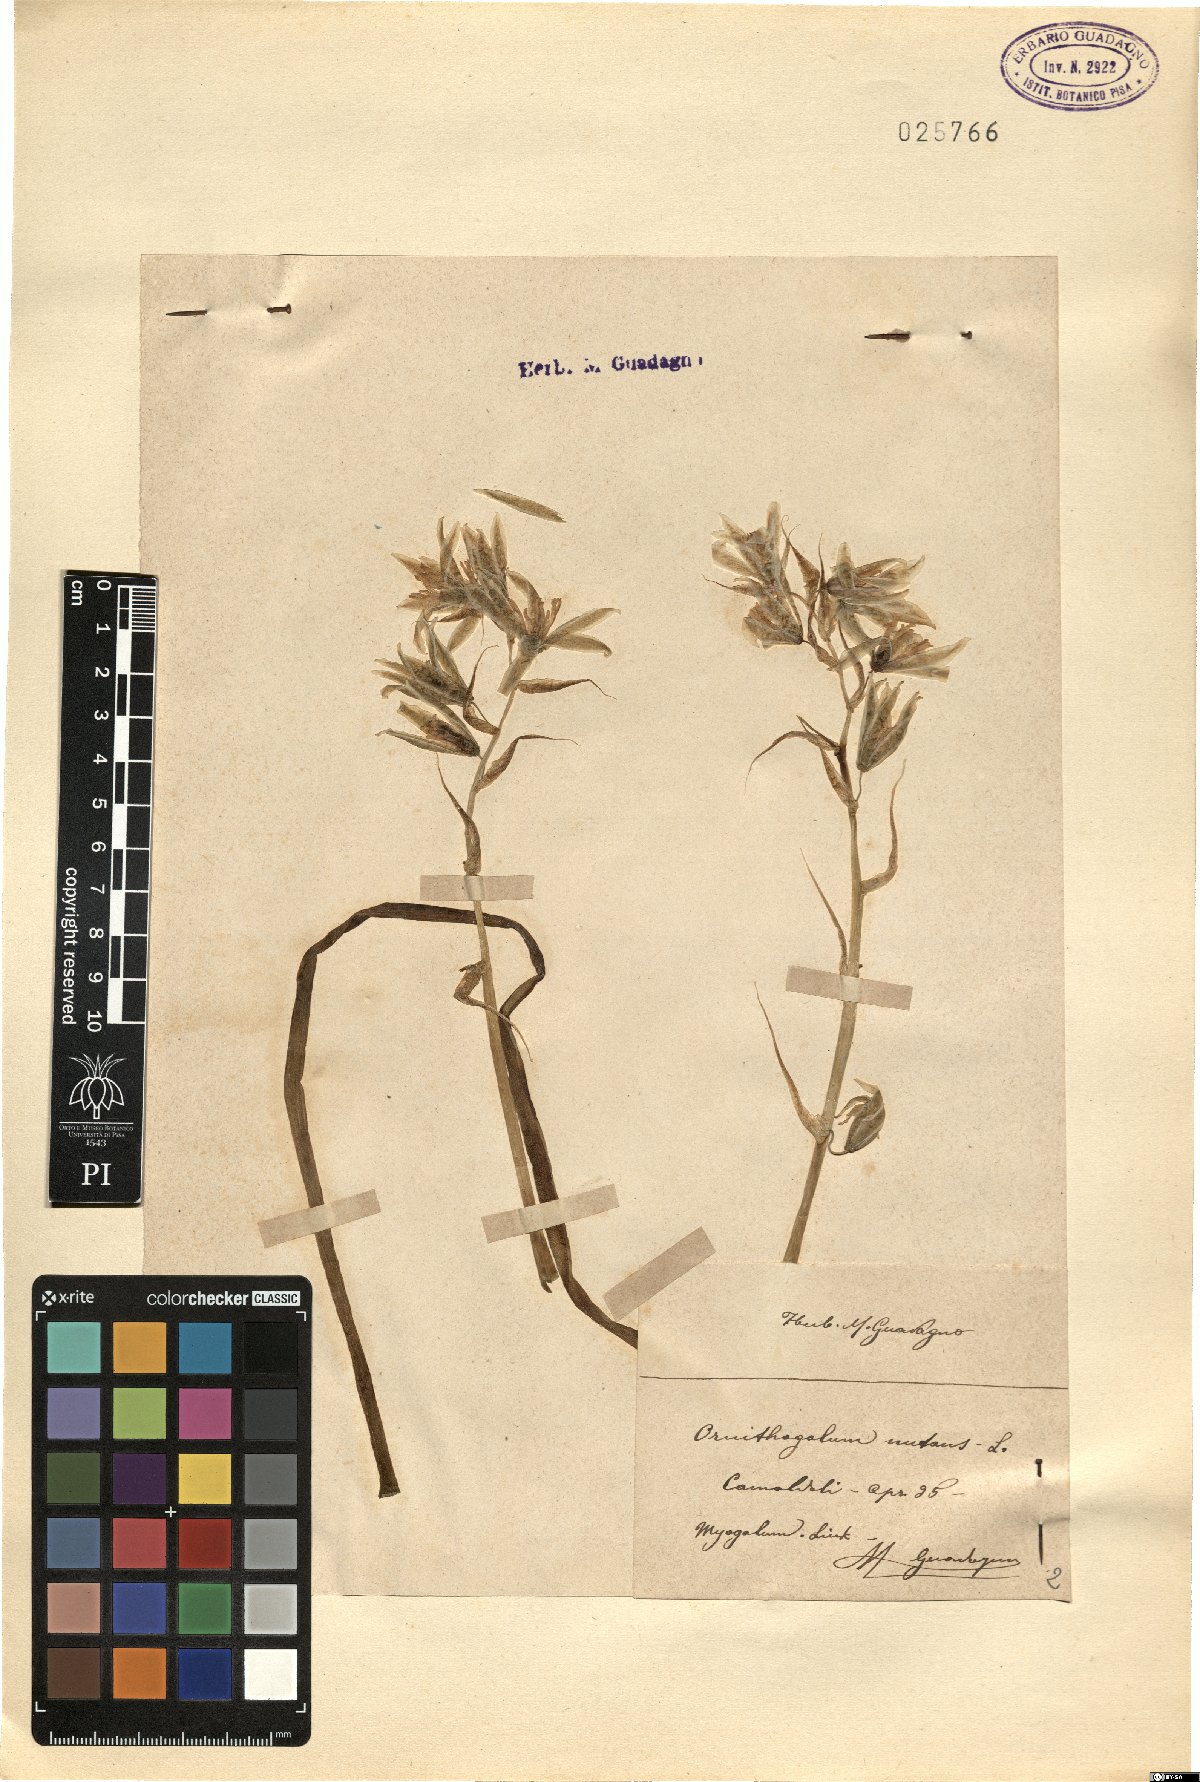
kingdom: Plantae
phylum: Tracheophyta
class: Liliopsida
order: Asparagales
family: Asparagaceae
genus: Ornithogalum
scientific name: Ornithogalum nutans
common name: Drooping star-of-bethlehem
